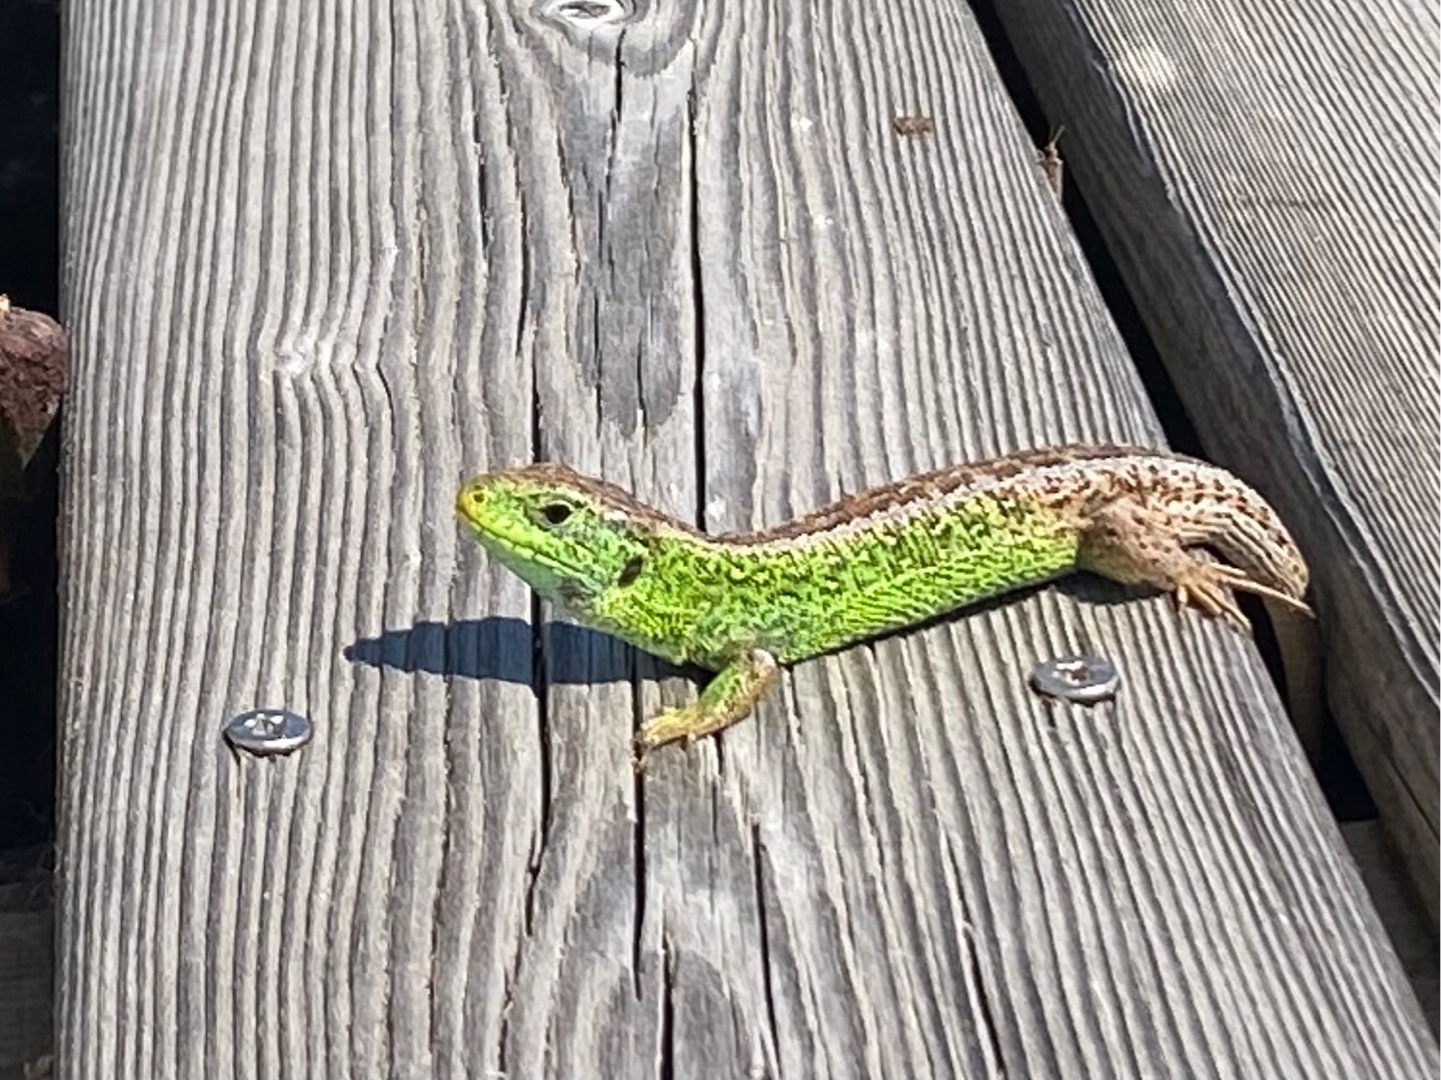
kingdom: Animalia
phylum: Chordata
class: Squamata
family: Lacertidae
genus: Lacerta
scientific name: Lacerta agilis
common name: Markfirben
